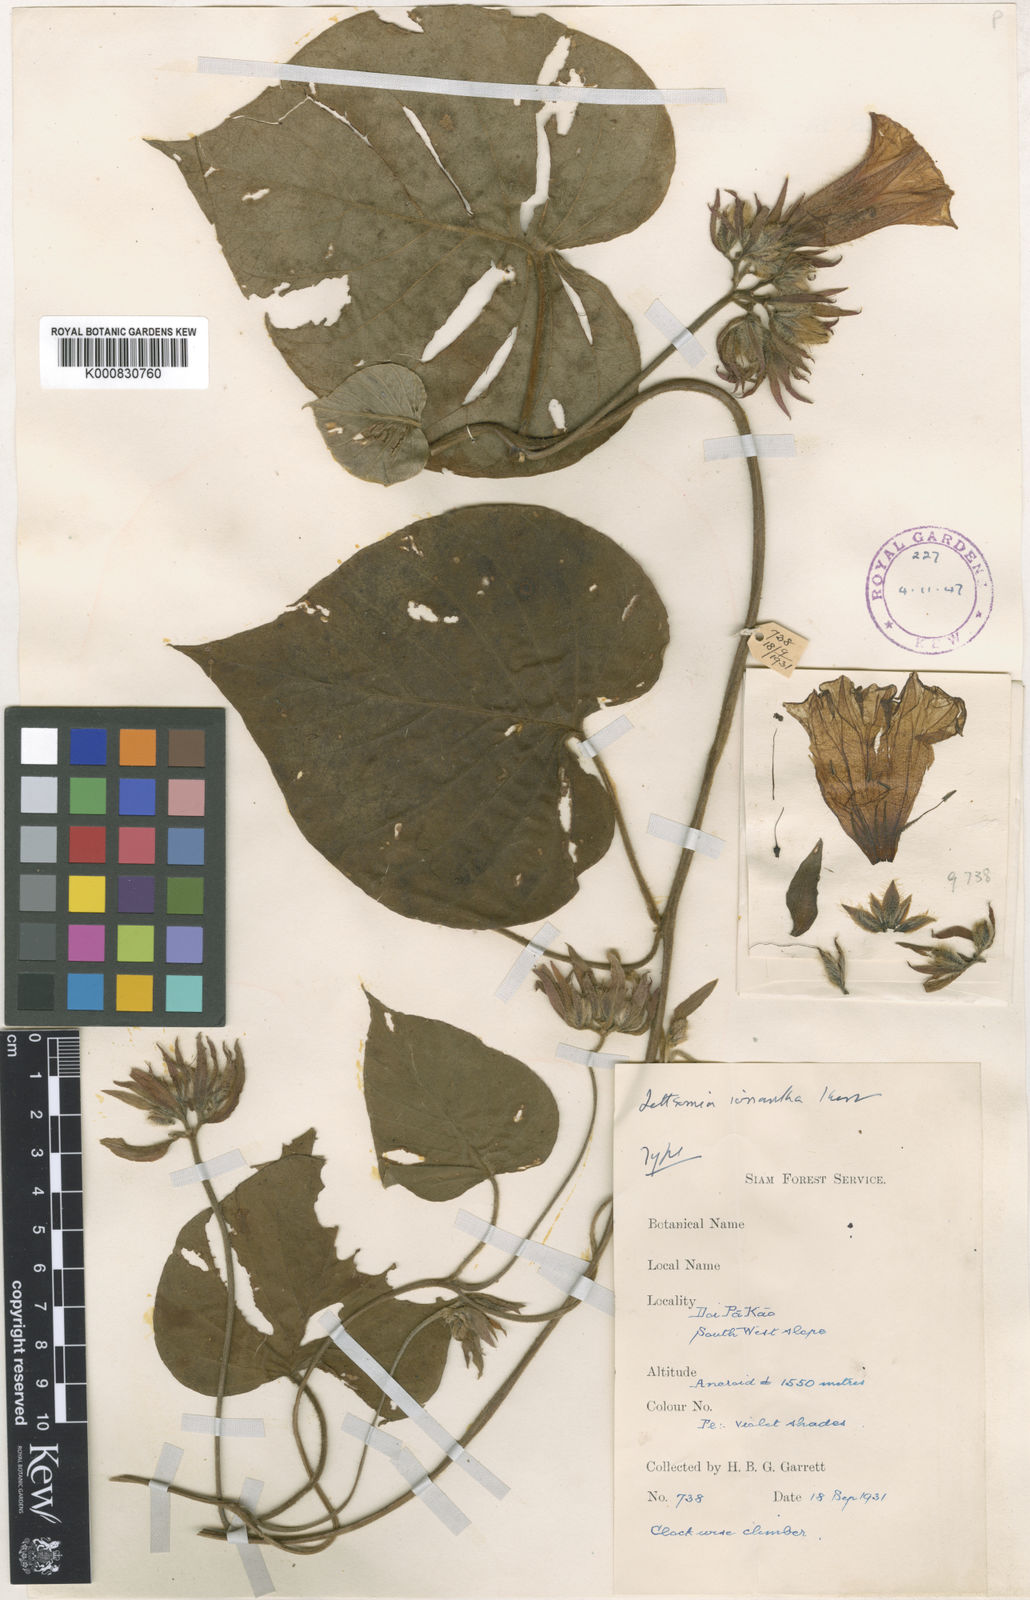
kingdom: Plantae
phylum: Tracheophyta
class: Magnoliopsida
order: Solanales
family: Convolvulaceae
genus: Ipomoea
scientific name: Ipomoea ionantha
